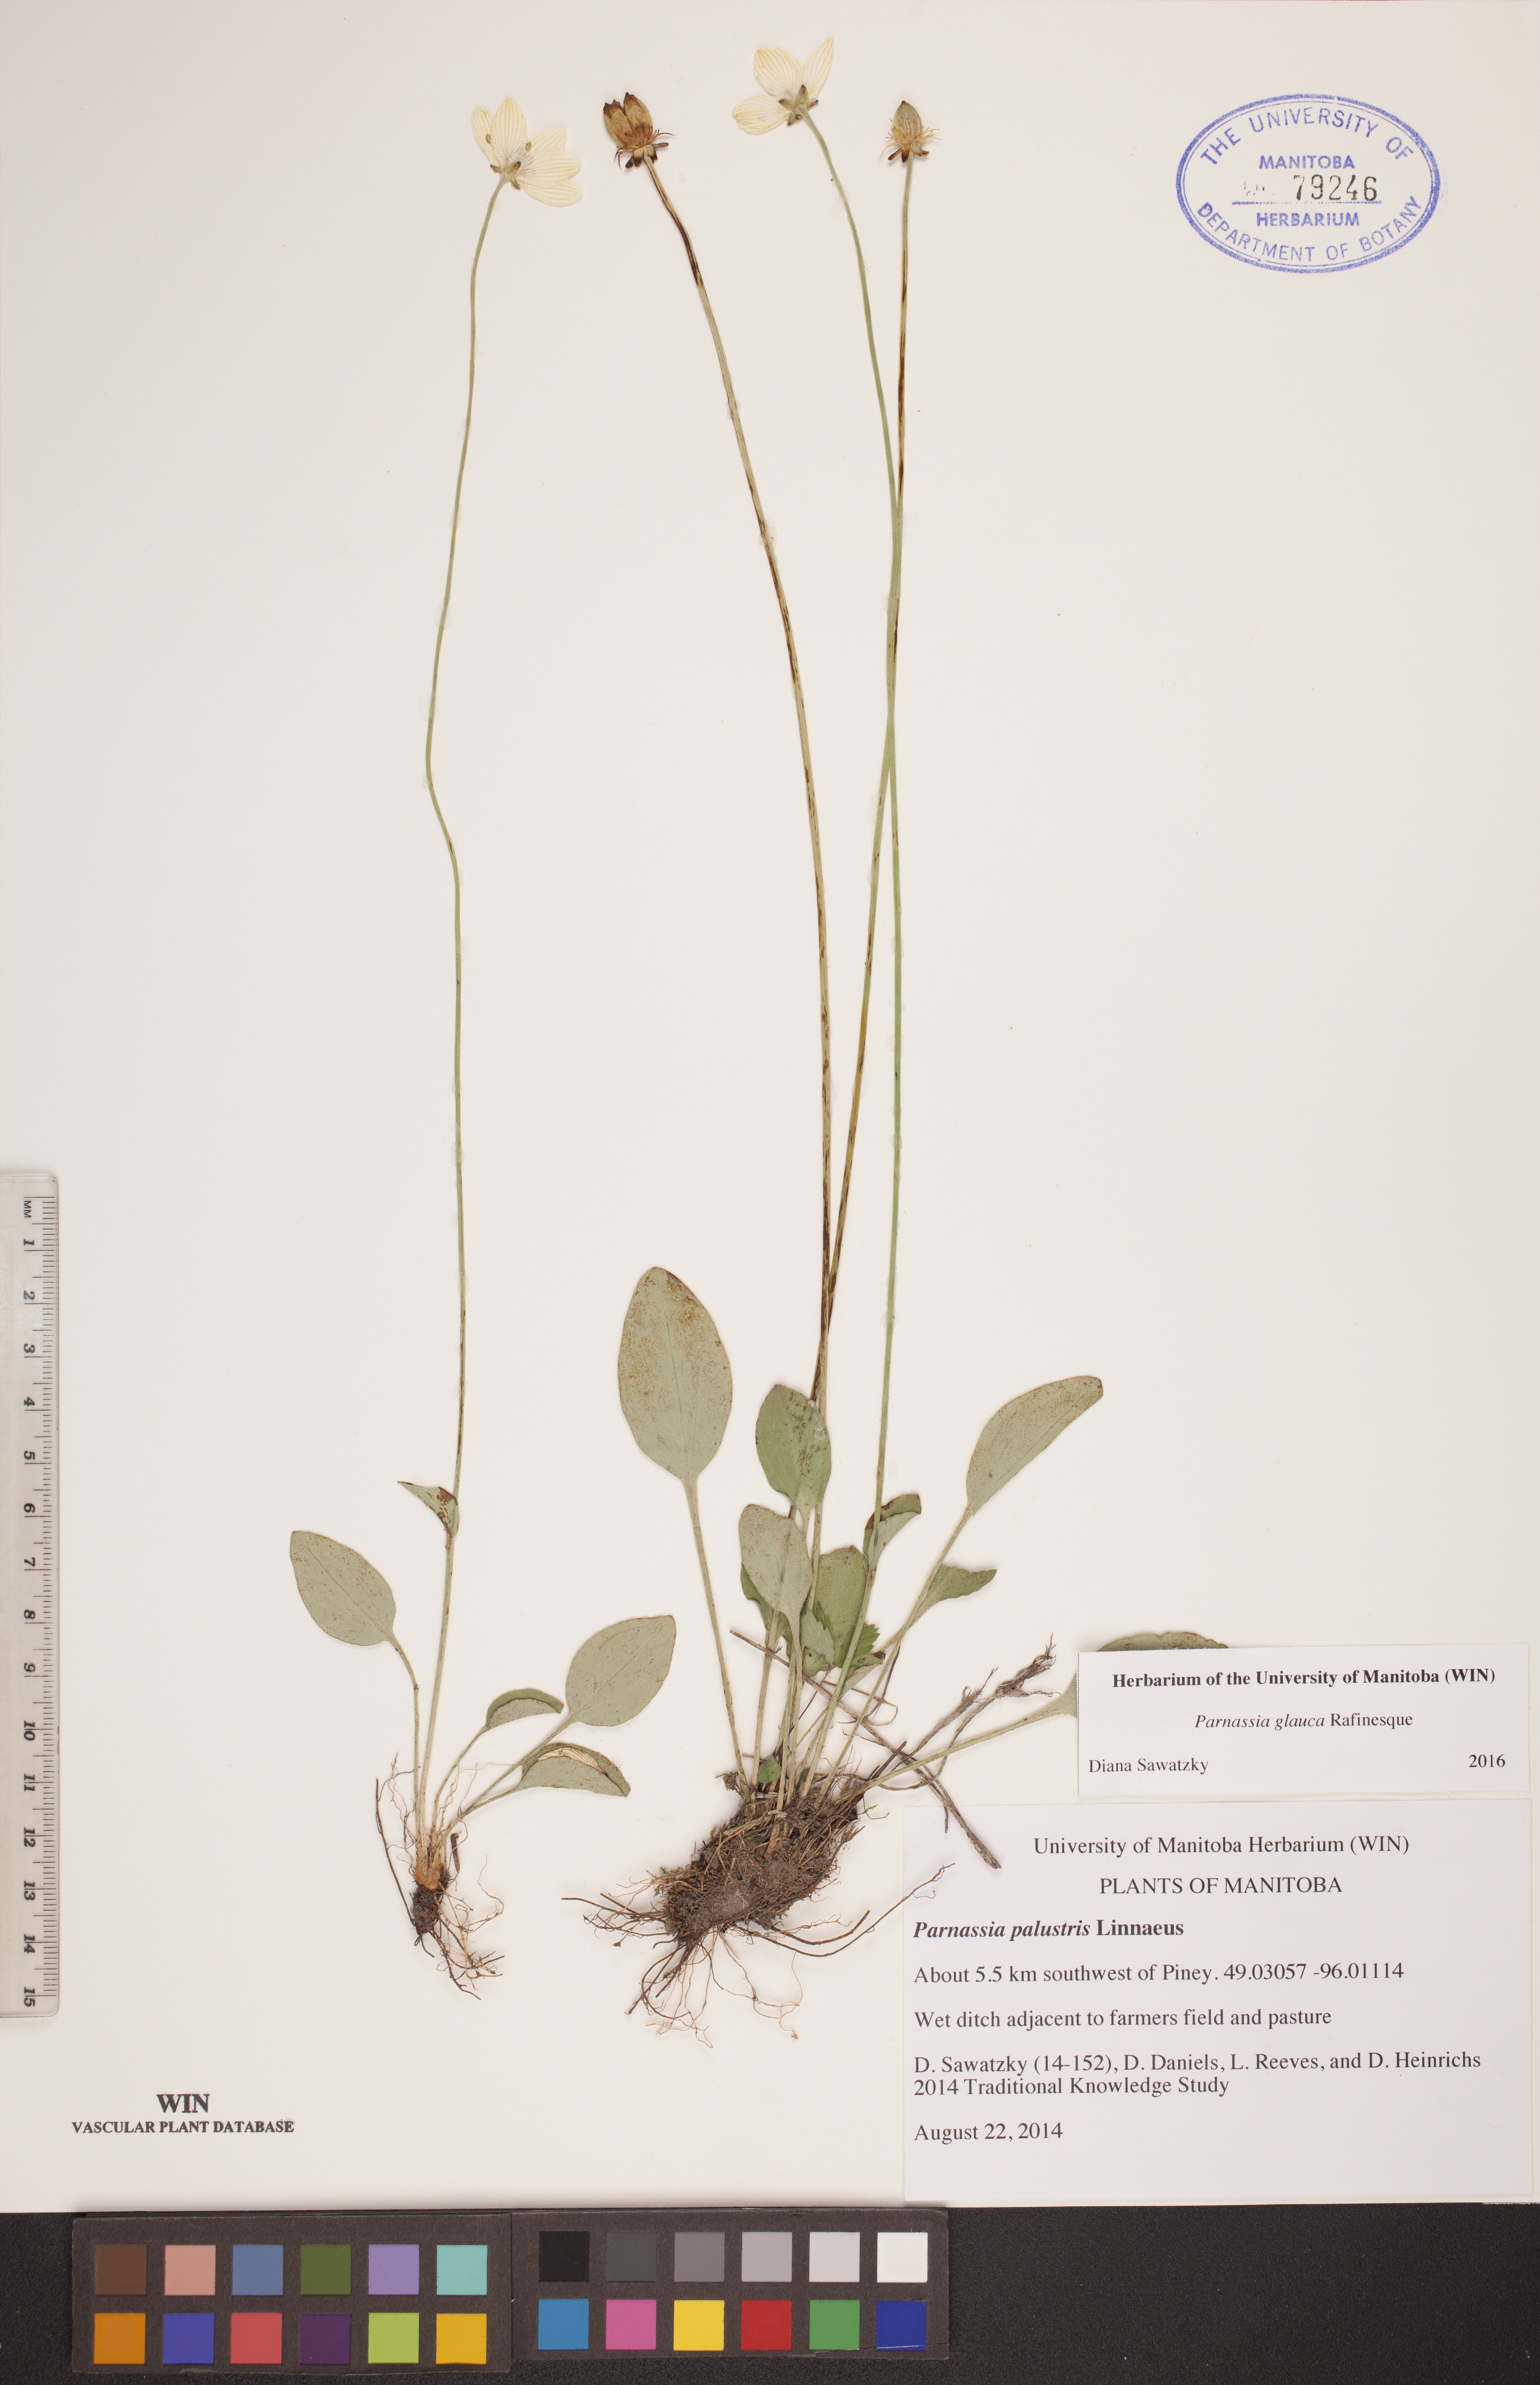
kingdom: Plantae
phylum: Tracheophyta
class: Magnoliopsida
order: Celastrales
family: Parnassiaceae
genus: Parnassia
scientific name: Parnassia glauca
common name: American grass-of-parnassus
